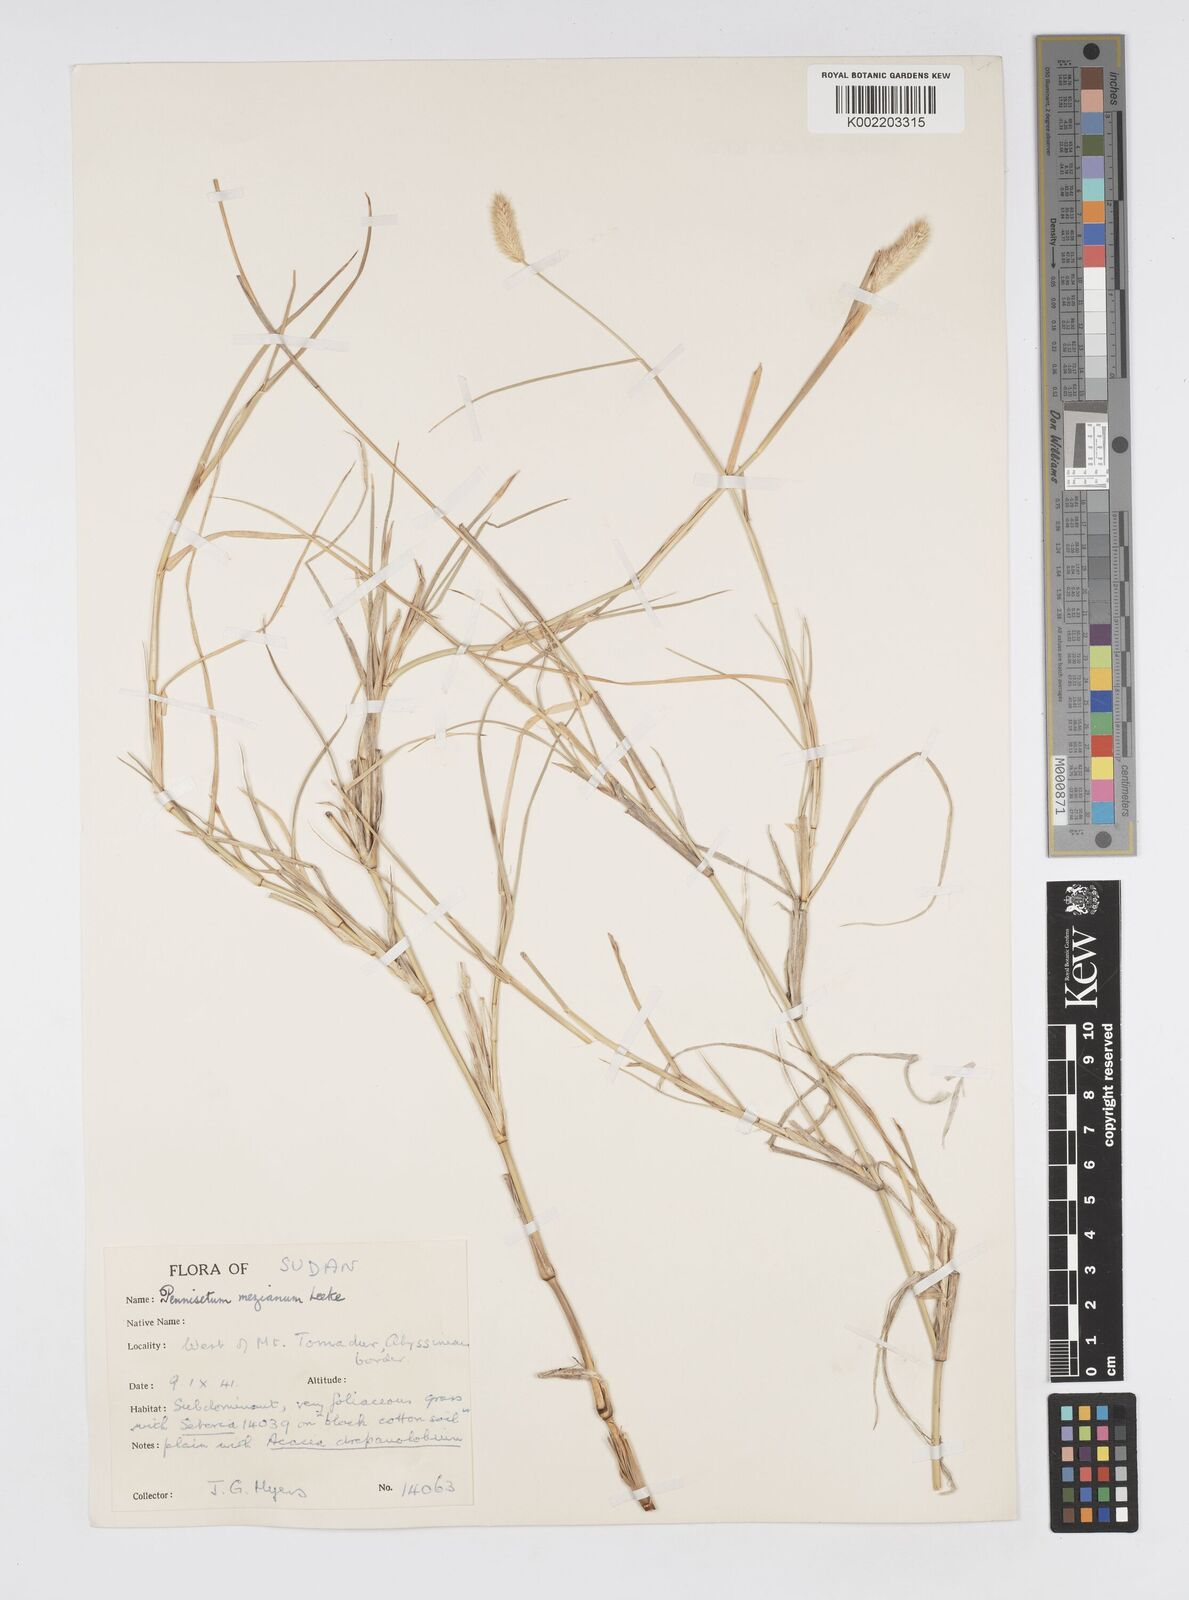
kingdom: Plantae
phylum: Tracheophyta
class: Liliopsida
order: Poales
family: Poaceae
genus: Cenchrus
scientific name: Cenchrus mezianus
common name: Bamboo grass
